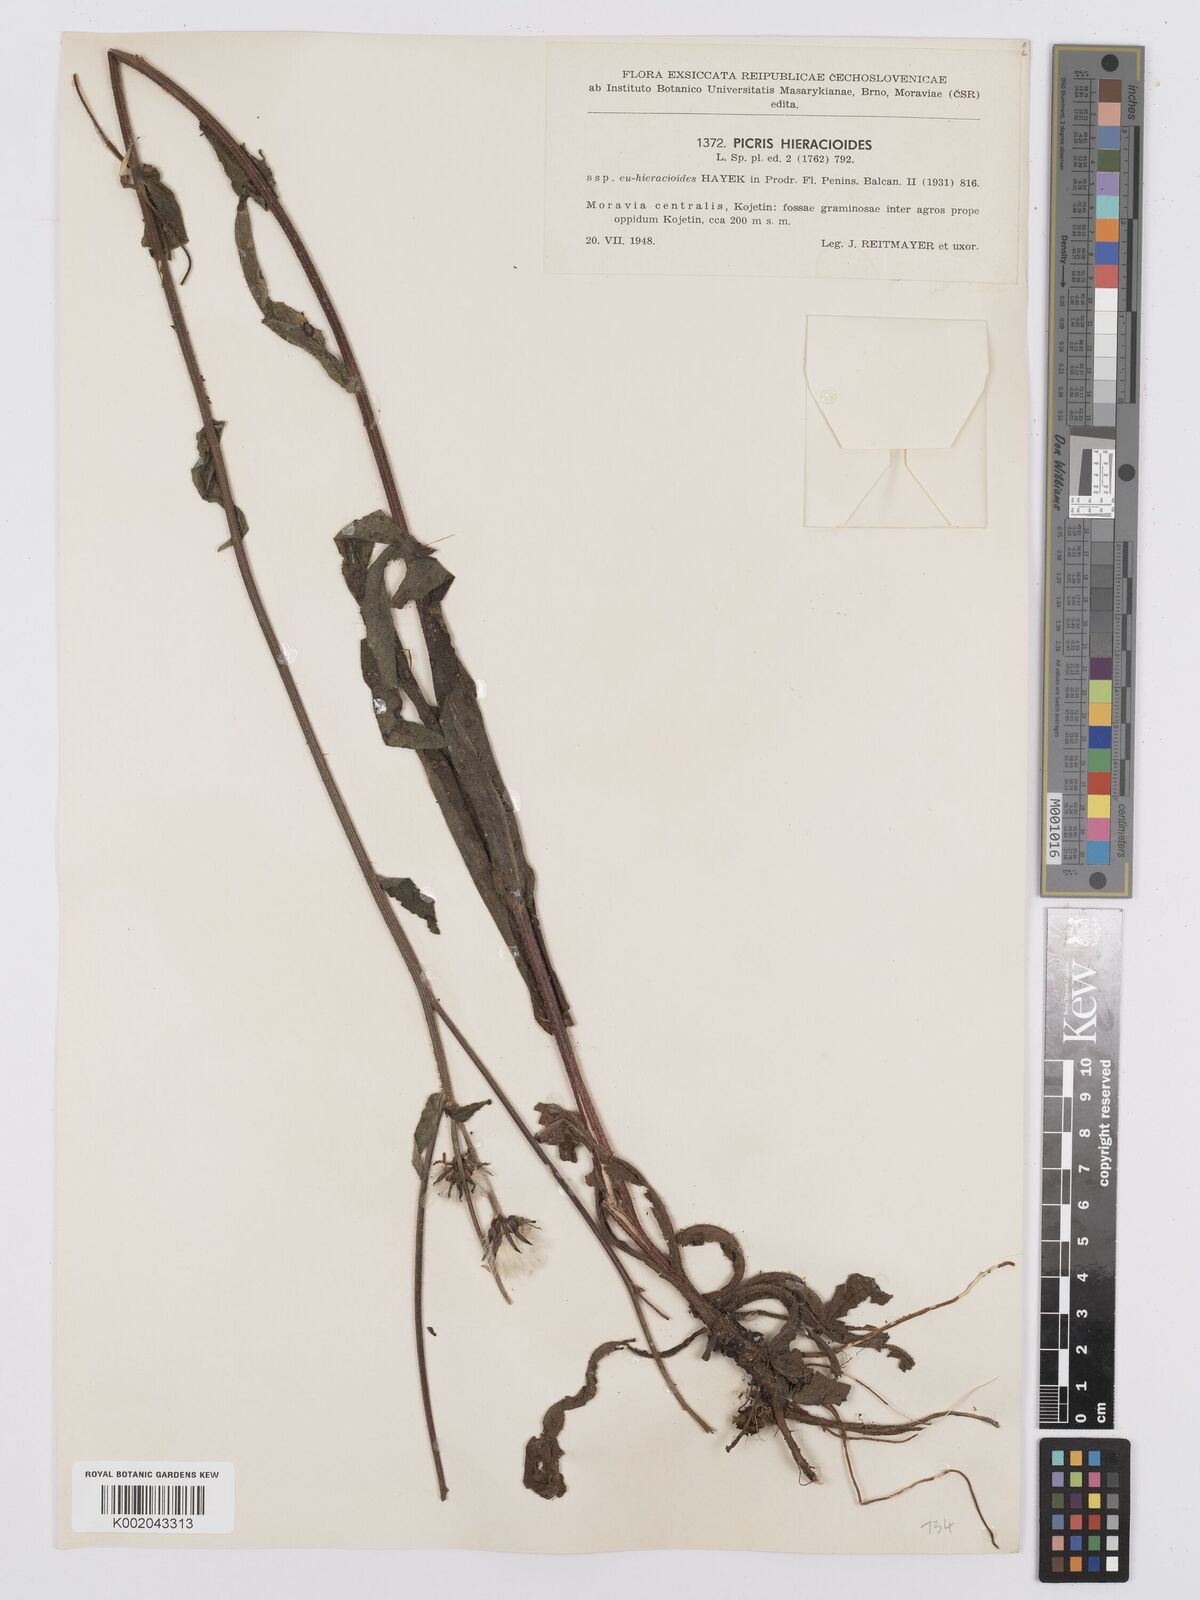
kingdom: Plantae
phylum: Tracheophyta
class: Magnoliopsida
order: Asterales
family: Asteraceae
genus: Picris
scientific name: Picris hieracioides
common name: Hawkweed oxtongue
